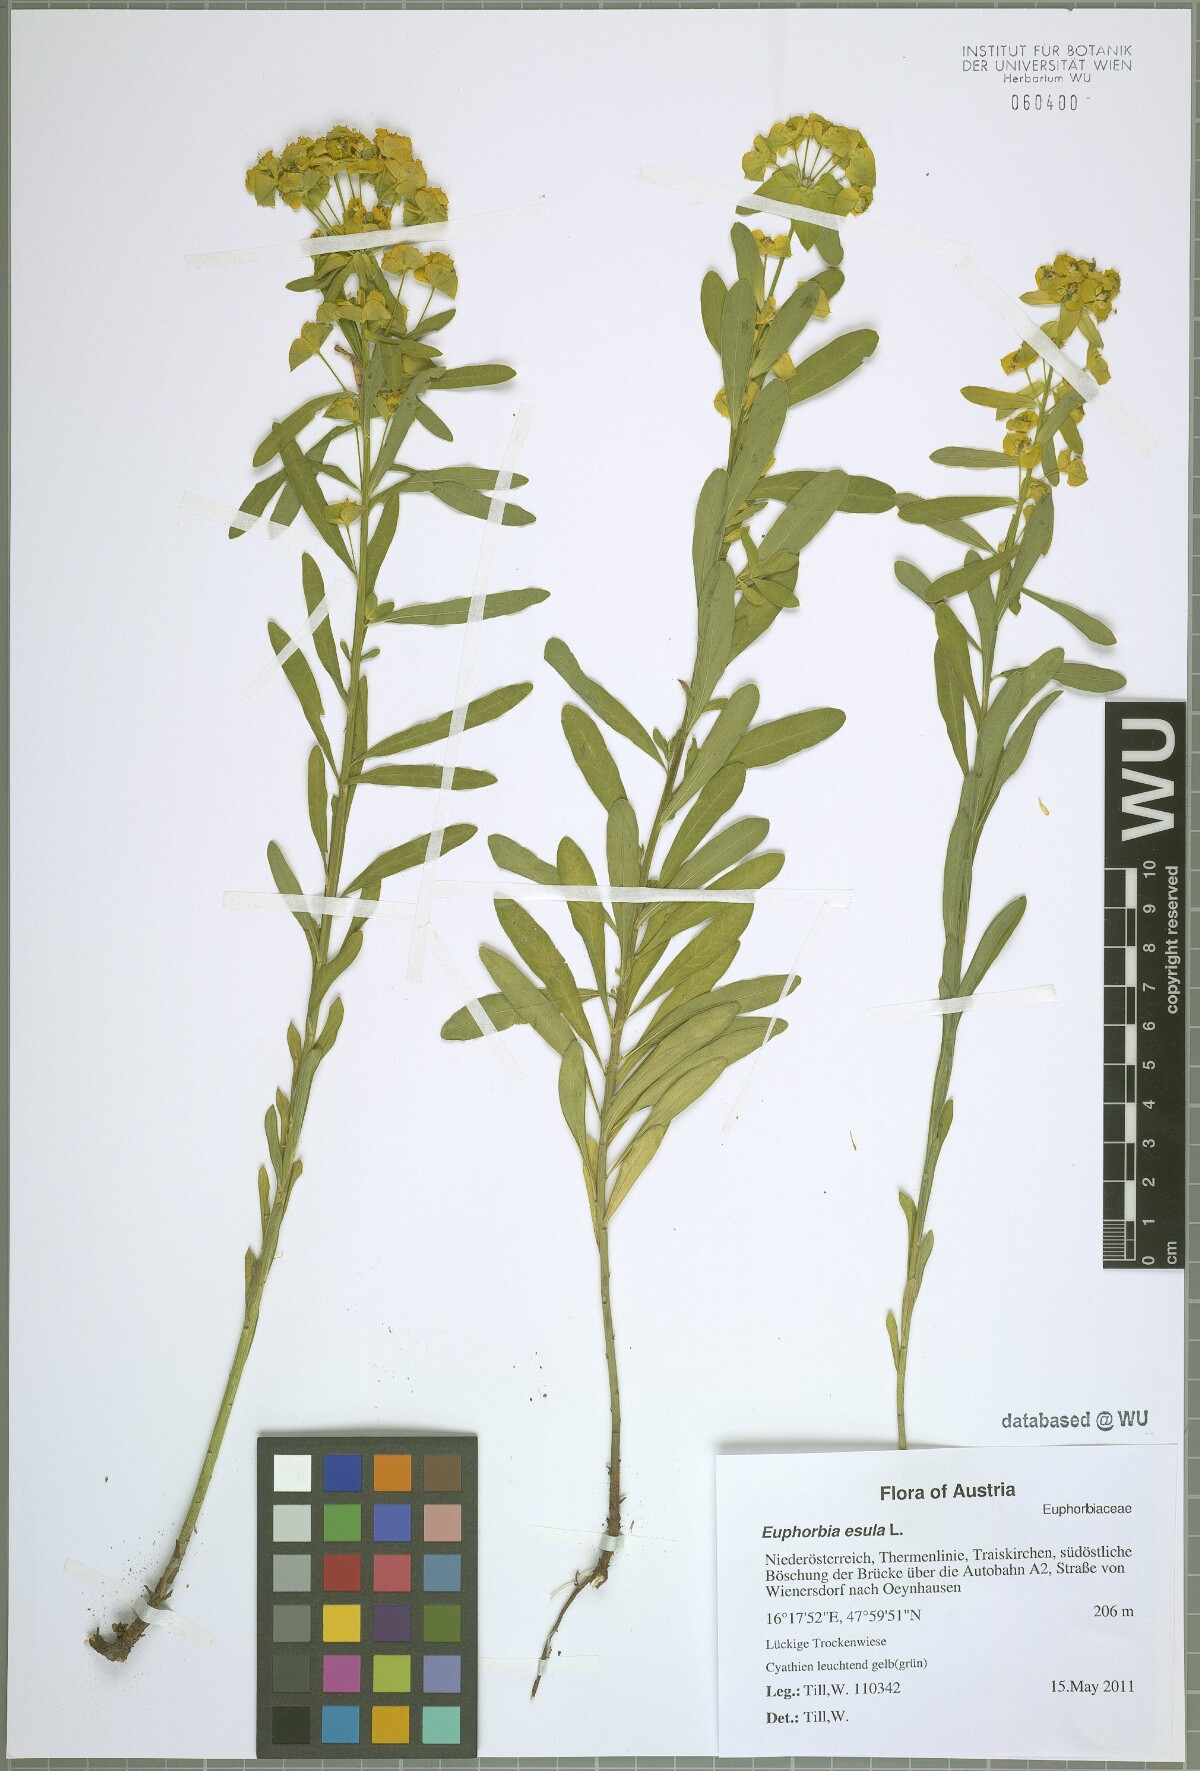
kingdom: Plantae
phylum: Tracheophyta
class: Magnoliopsida
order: Malpighiales
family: Euphorbiaceae
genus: Euphorbia
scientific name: Euphorbia esula
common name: Leafy spurge
